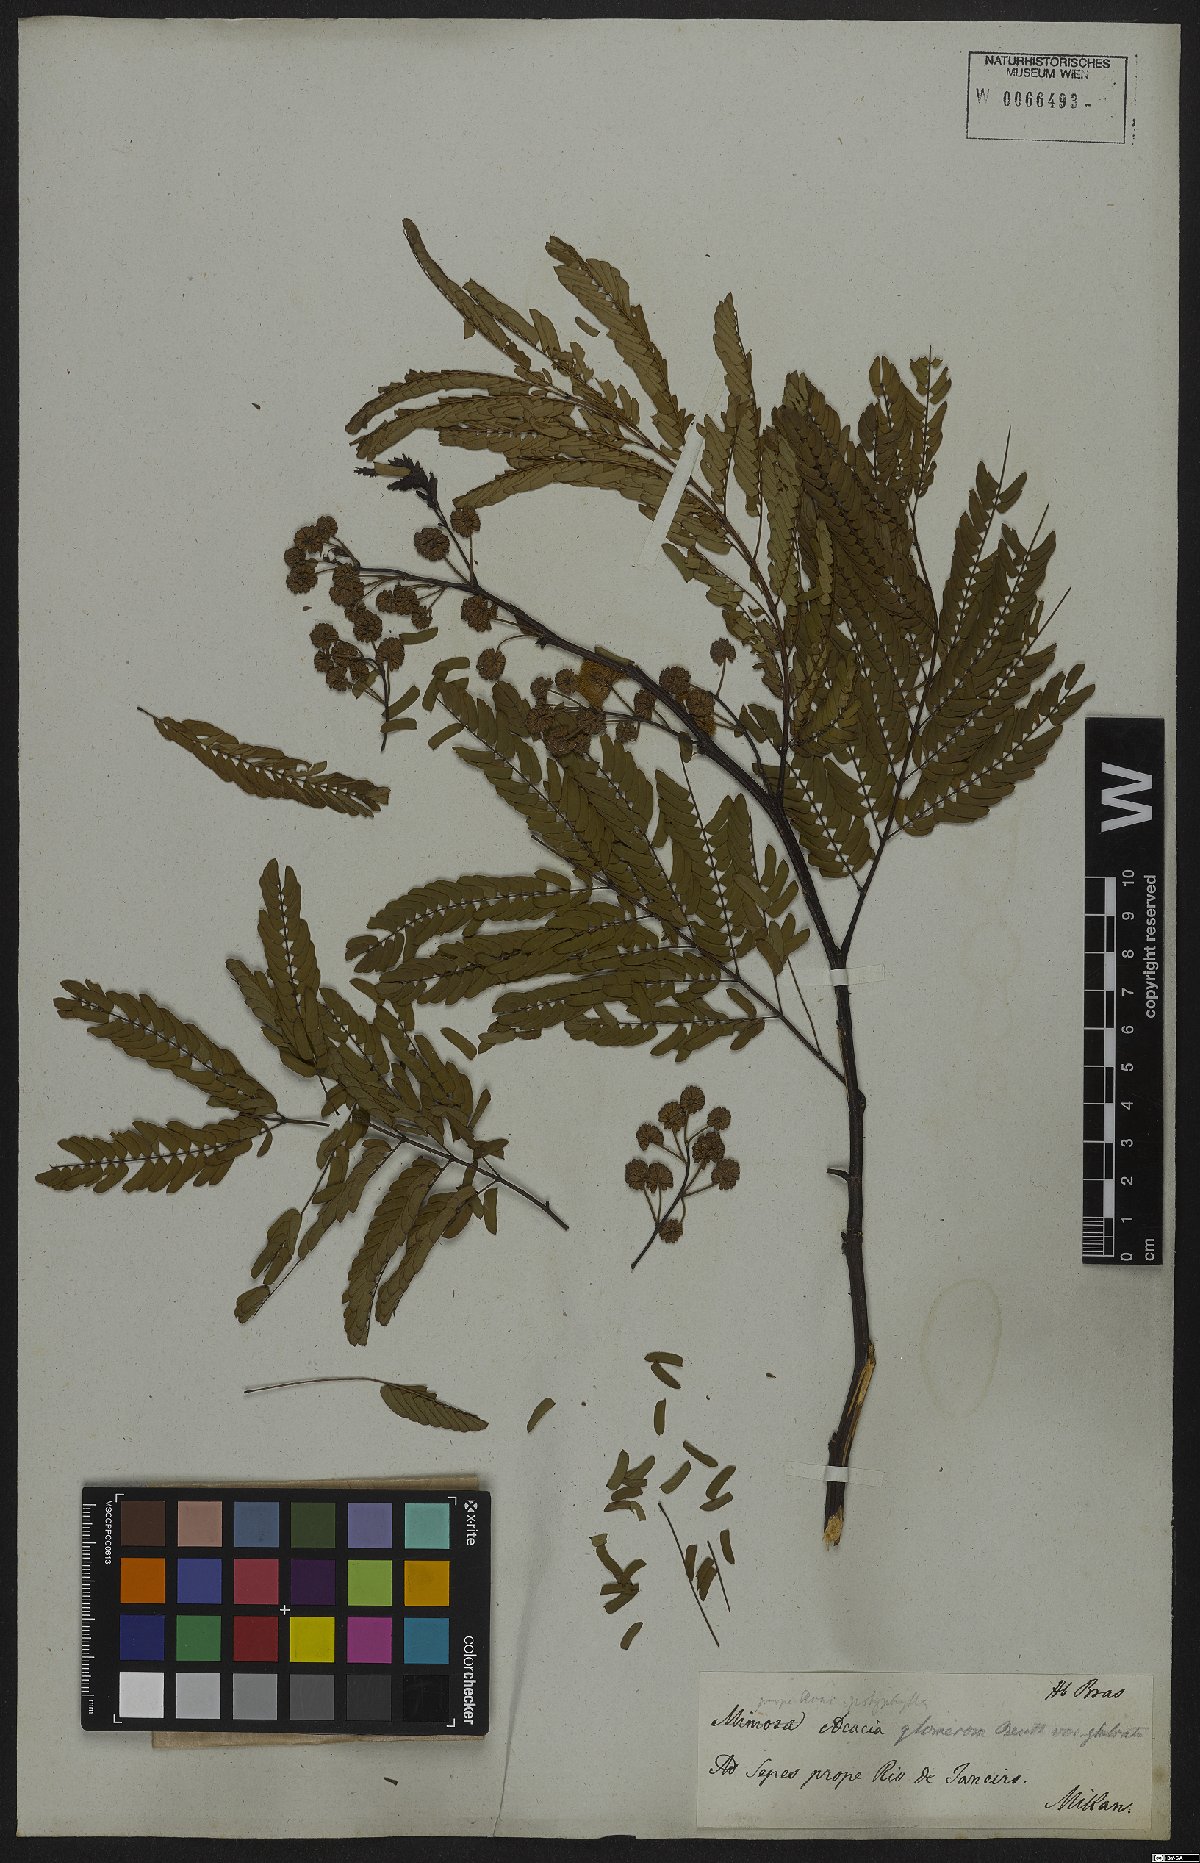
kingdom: Plantae
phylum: Tracheophyta
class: Magnoliopsida
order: Fabales
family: Fabaceae
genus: Senegalia
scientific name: Senegalia polyphylla
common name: White-tamarind
